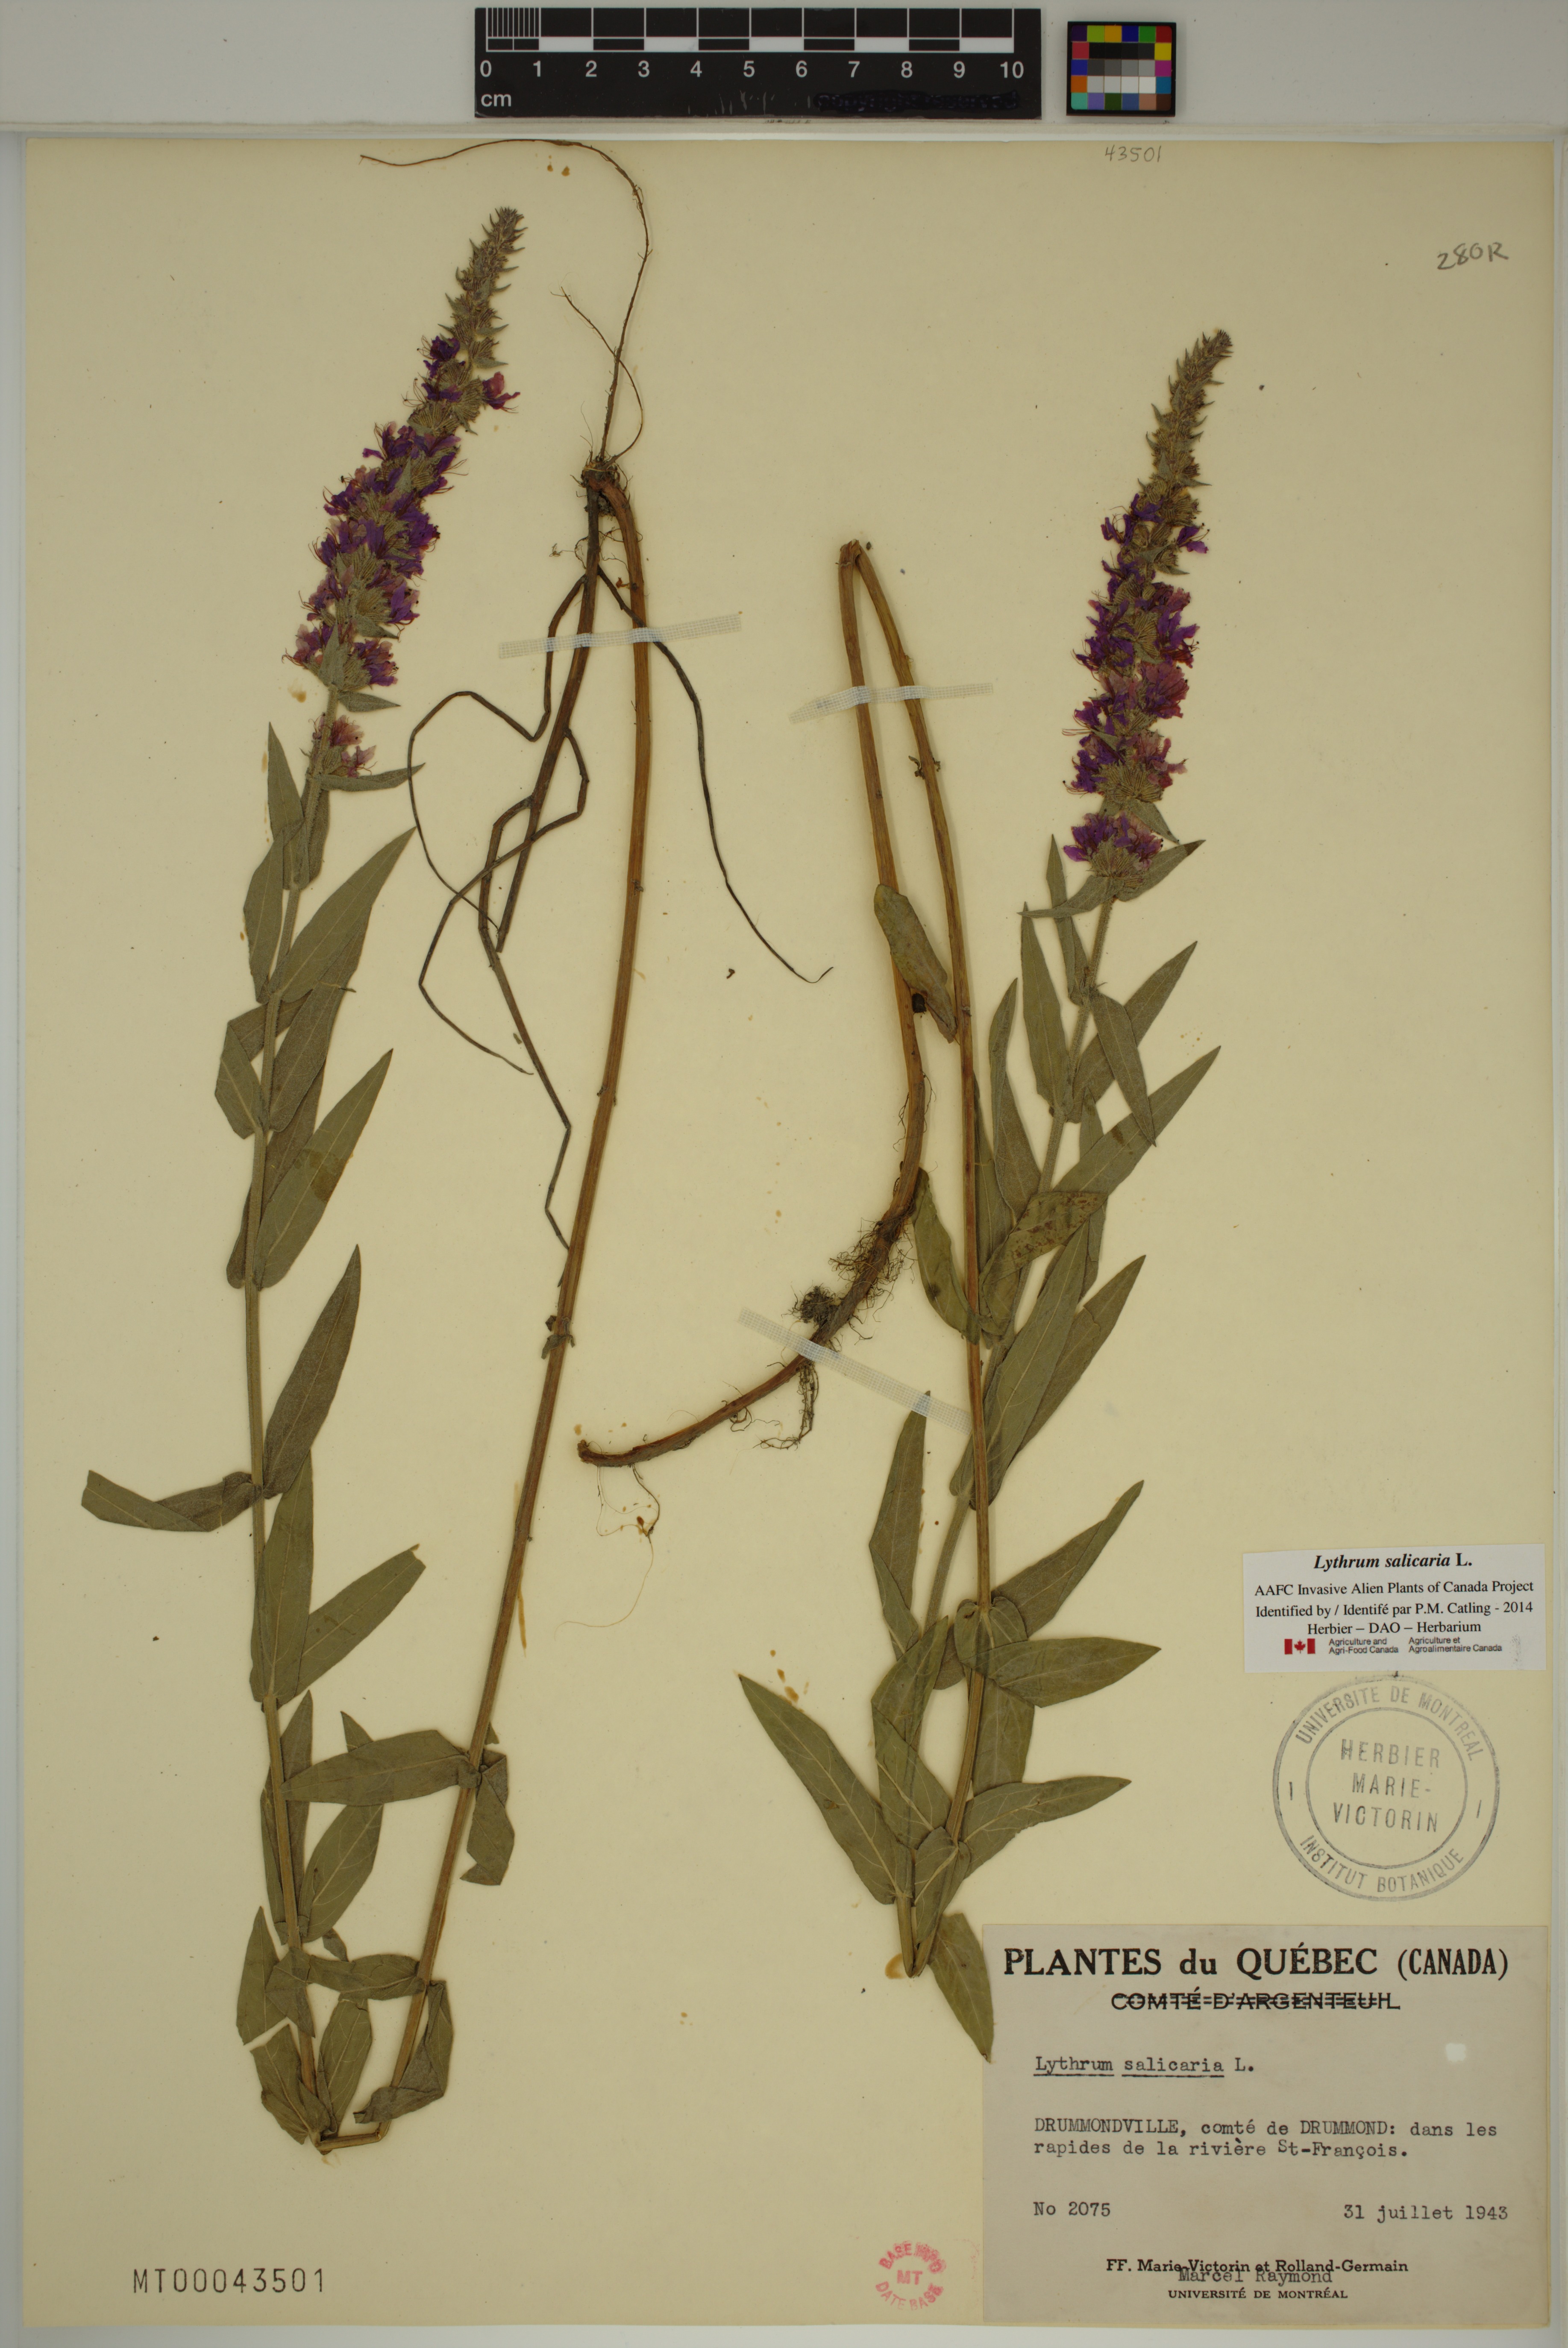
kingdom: Plantae
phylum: Tracheophyta
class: Magnoliopsida
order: Myrtales
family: Lythraceae
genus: Lythrum
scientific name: Lythrum salicaria
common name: Purple loosestrife
